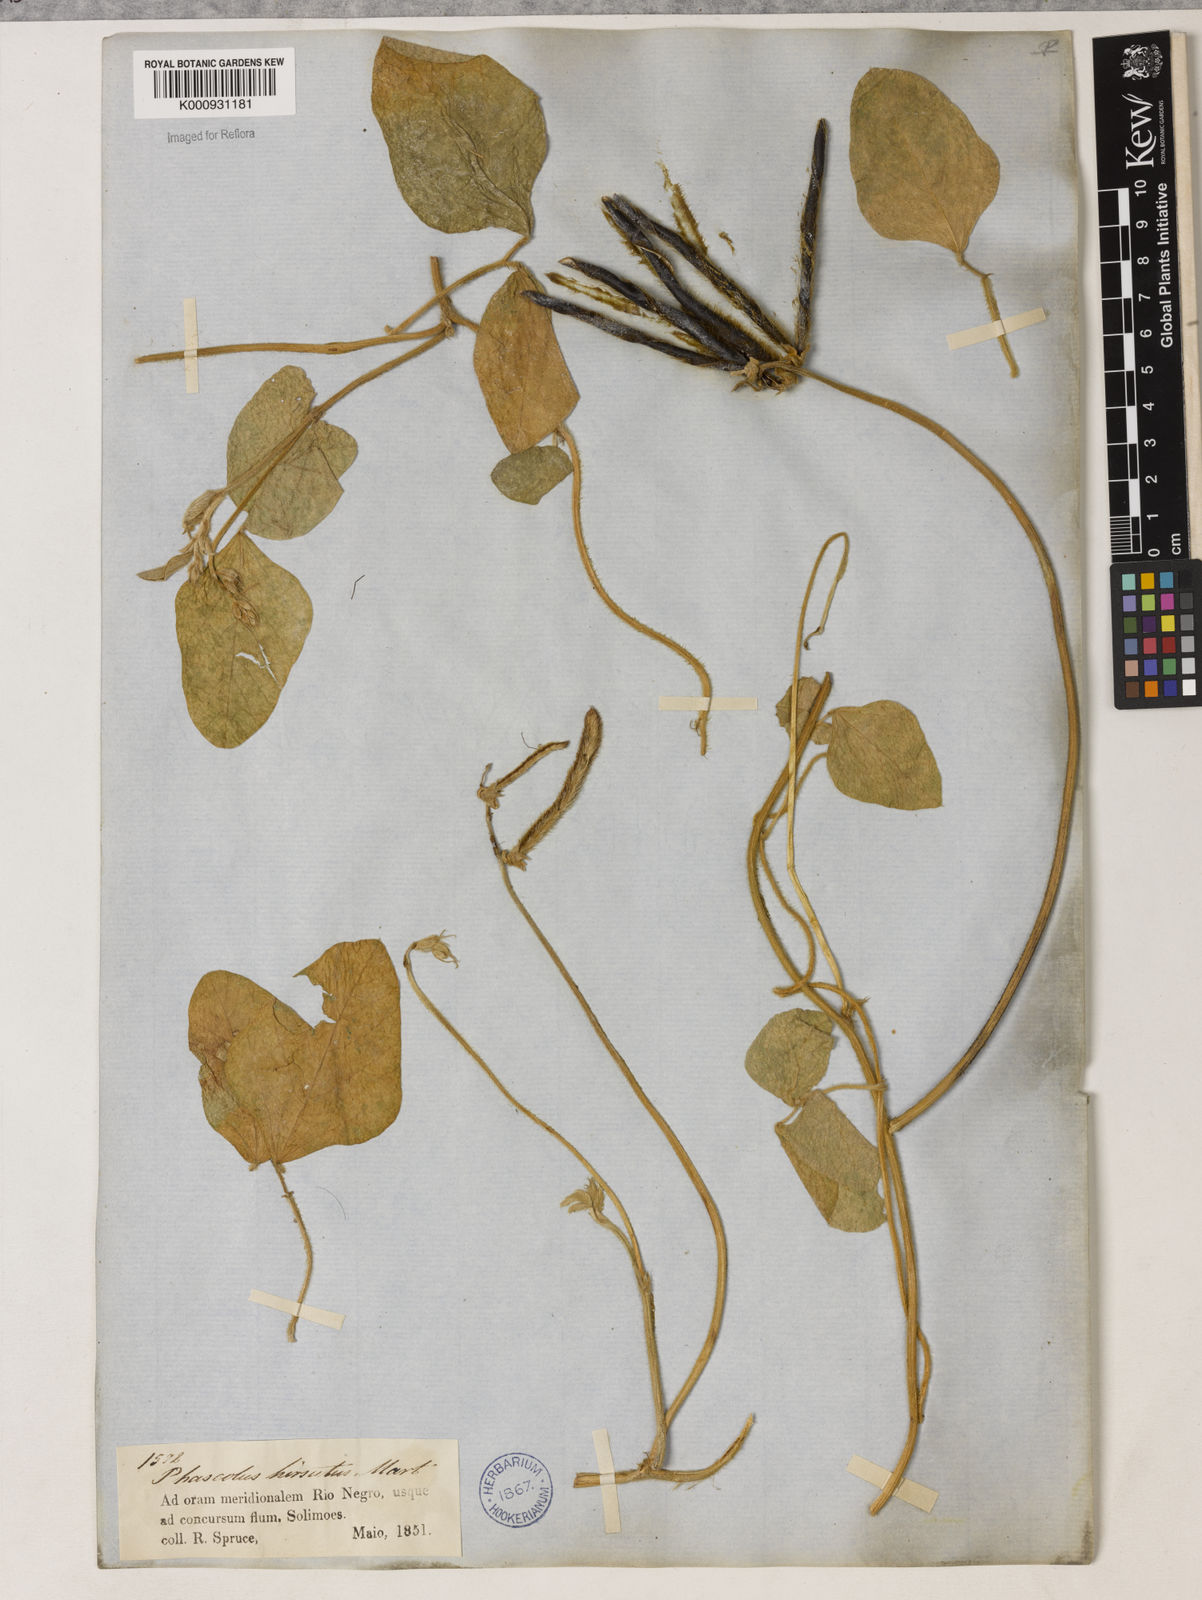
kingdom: Plantae
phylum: Tracheophyta
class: Magnoliopsida
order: Fabales
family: Fabaceae
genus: Vigna
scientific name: Vigna lasiocarpa
